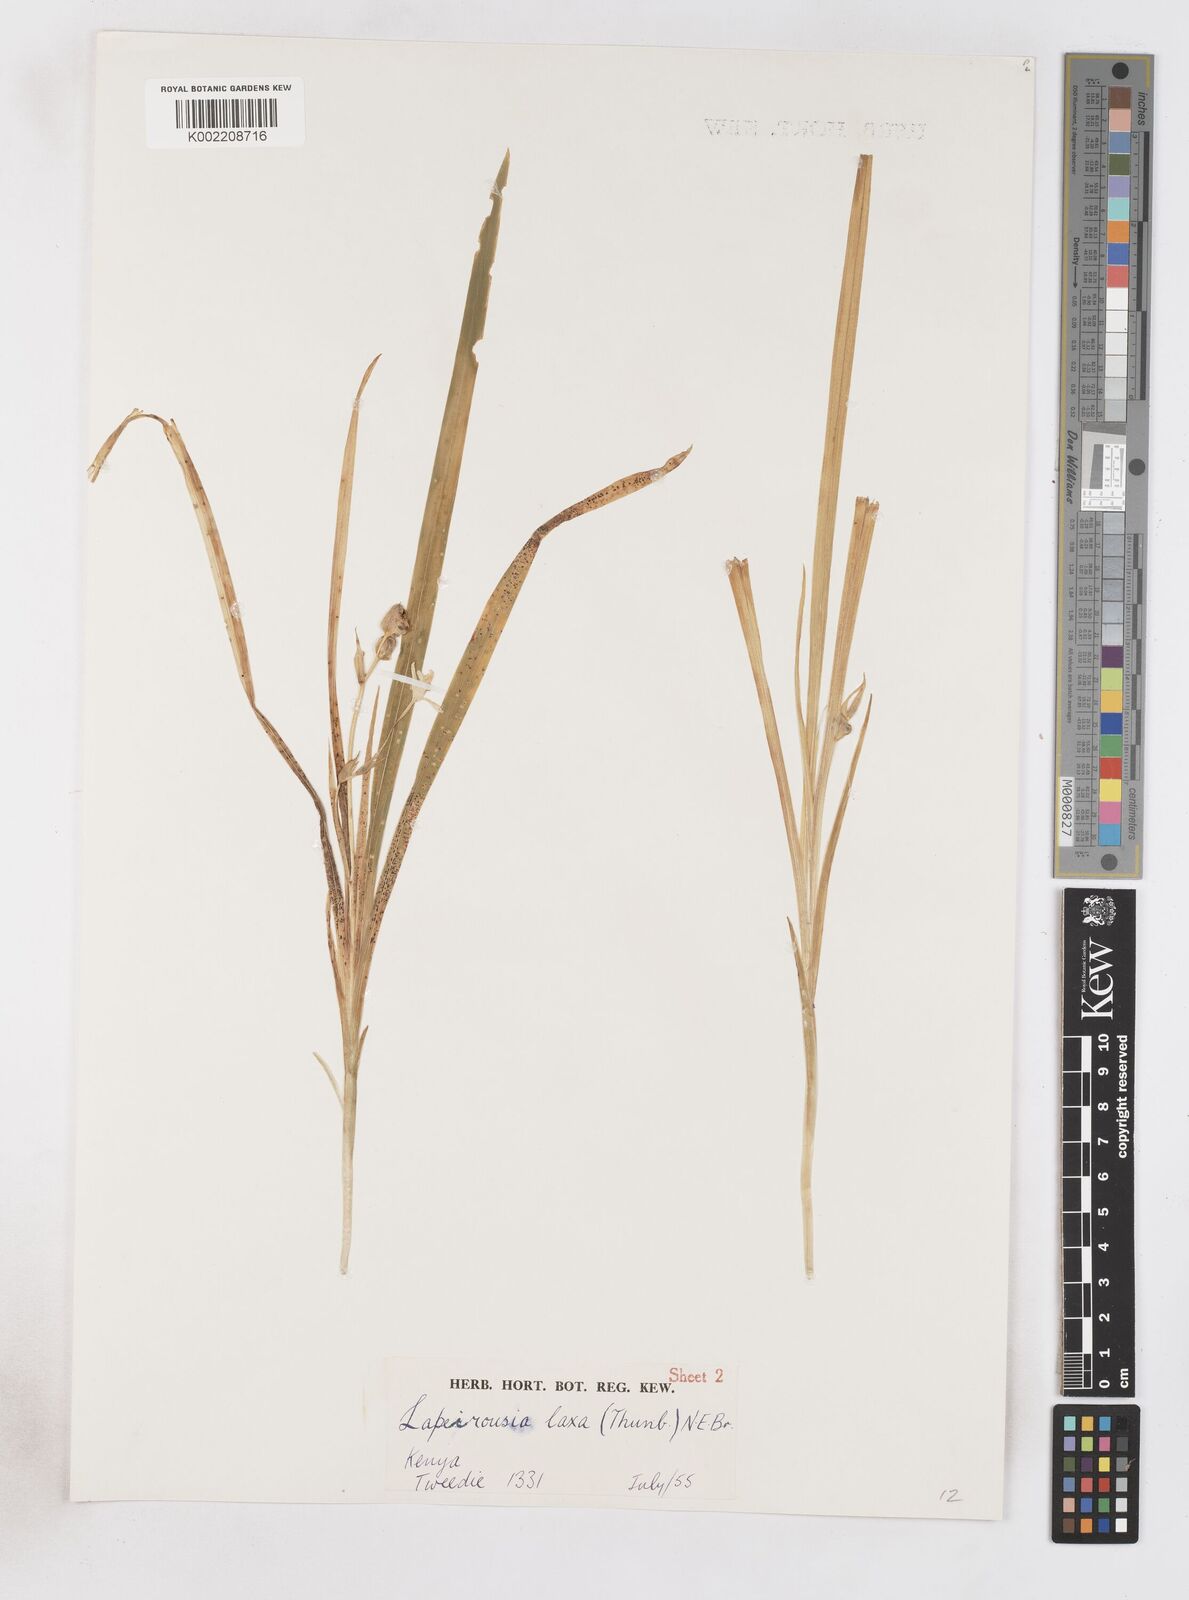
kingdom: Plantae
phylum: Tracheophyta
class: Liliopsida
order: Asparagales
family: Iridaceae
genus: Freesia
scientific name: Freesia laxa
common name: False freesia
